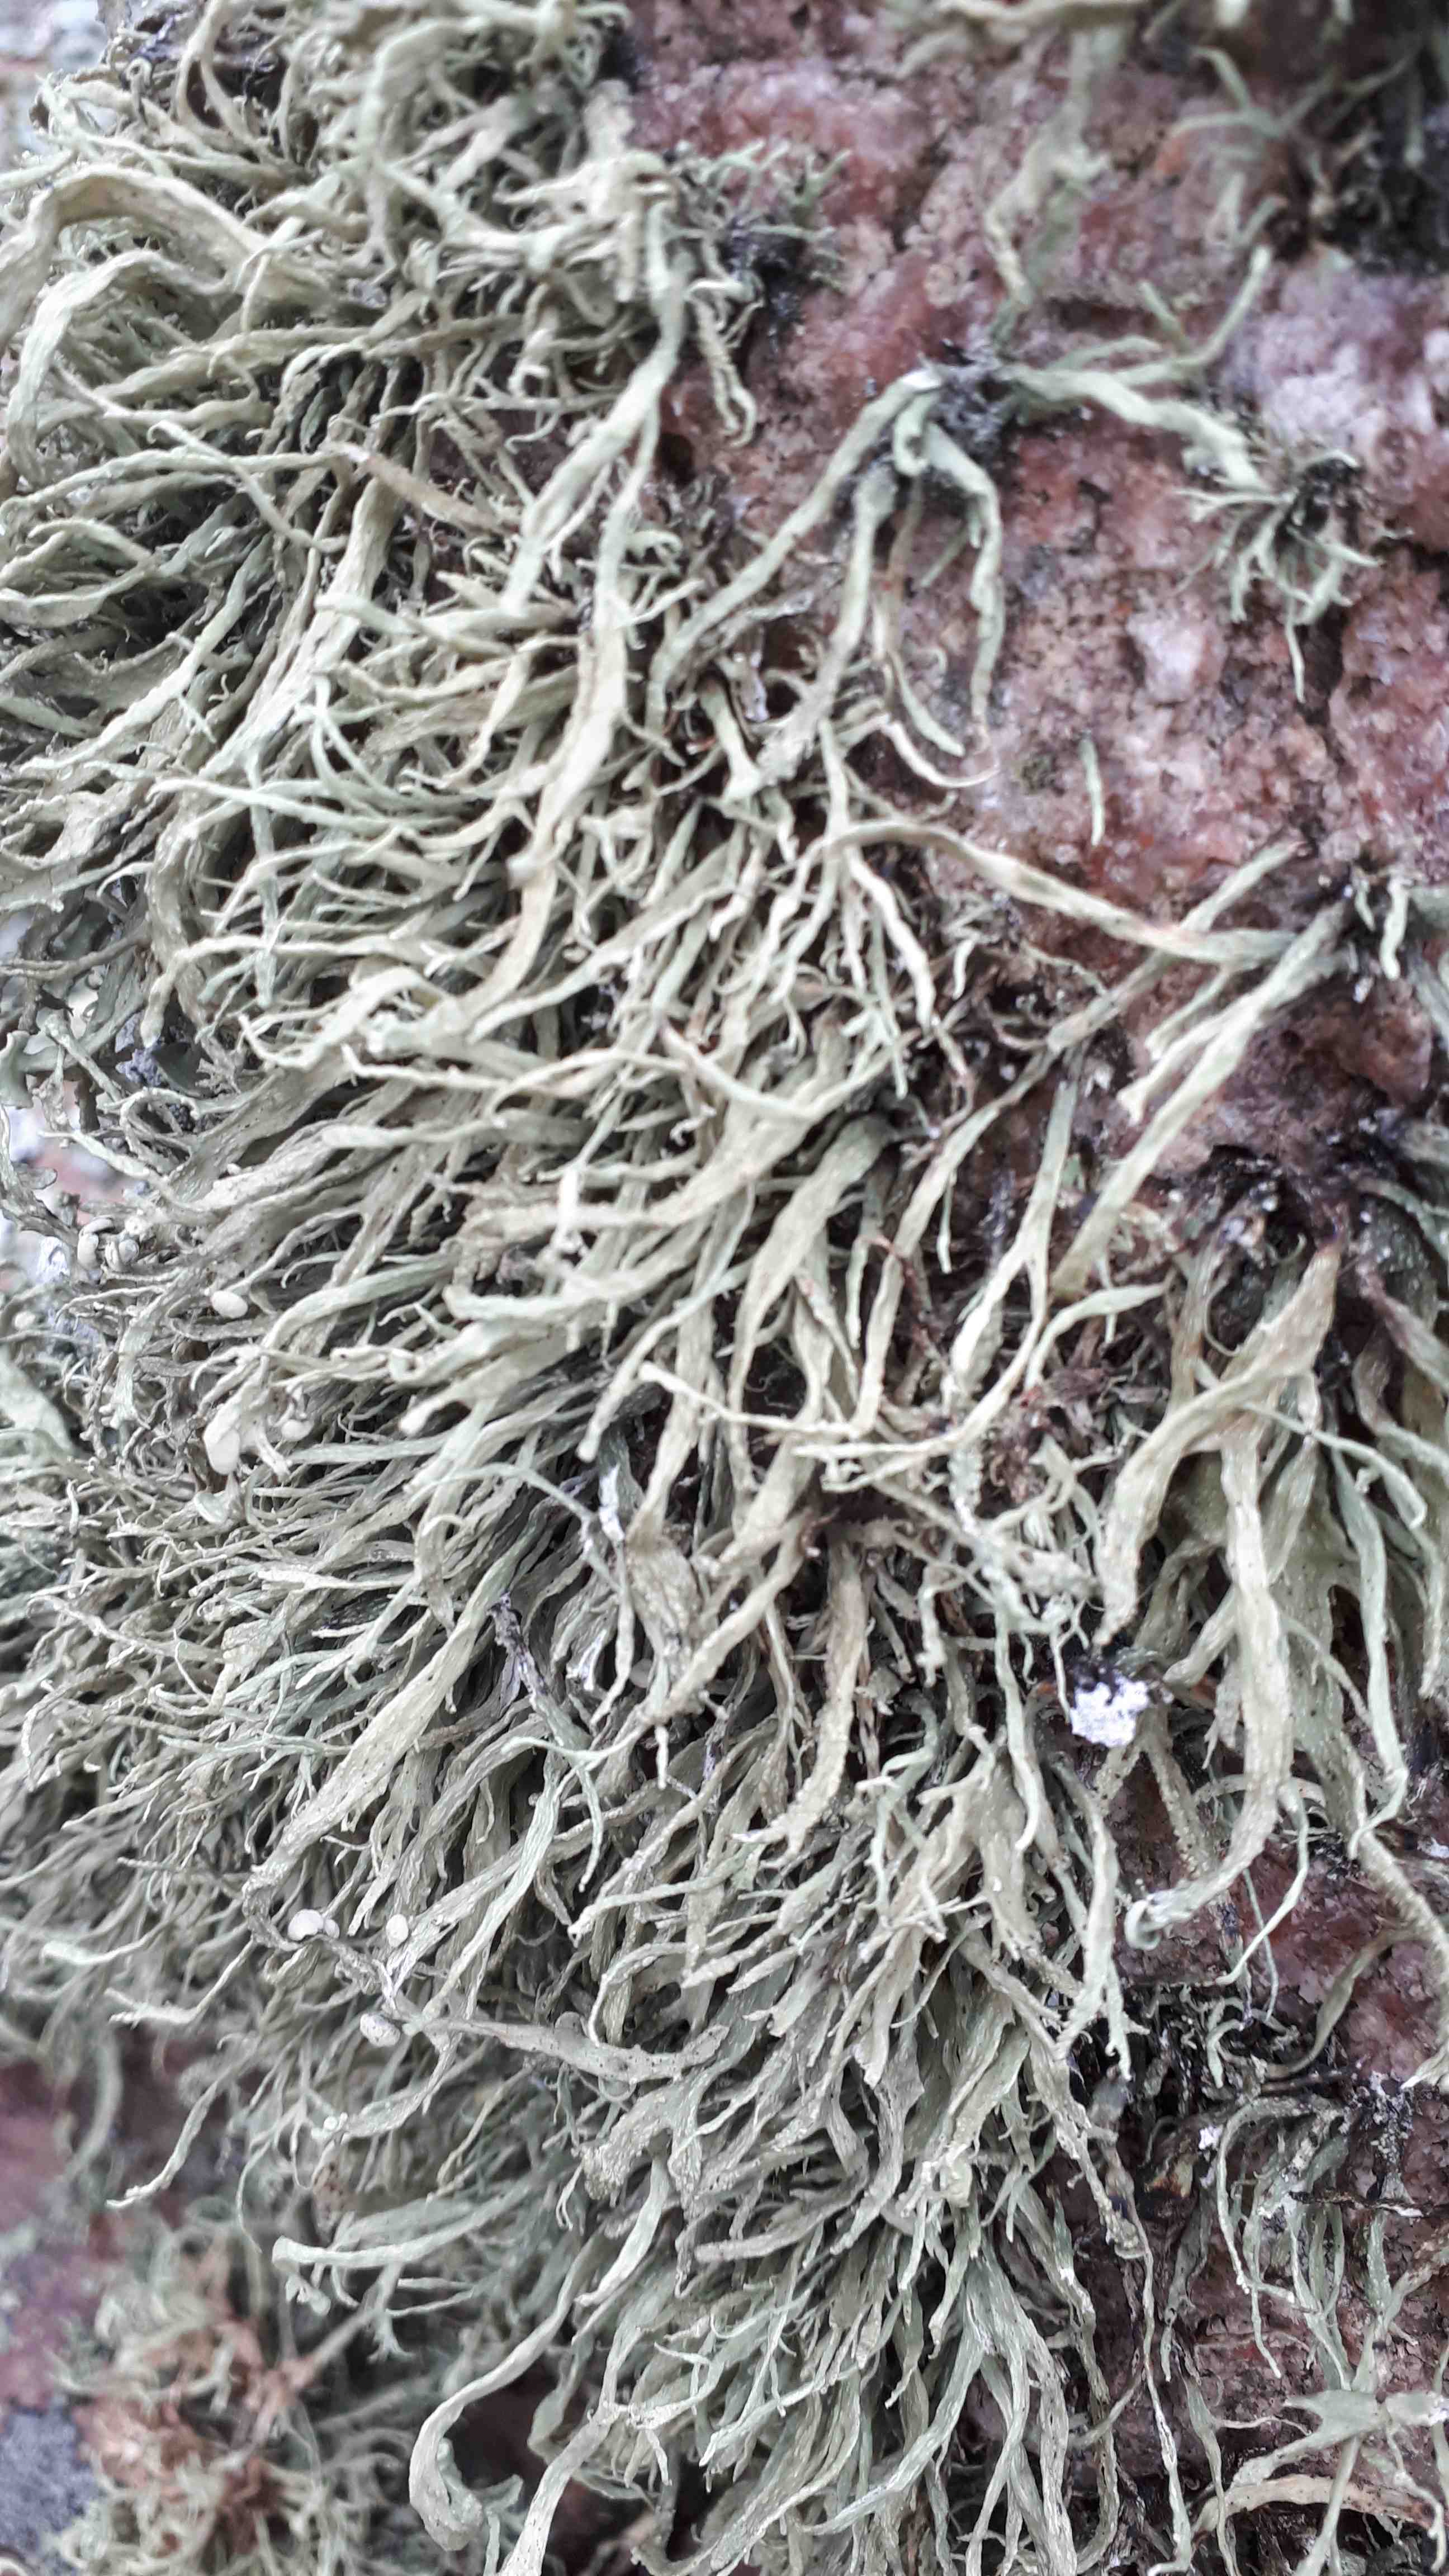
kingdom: Fungi
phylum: Ascomycota
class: Lecanoromycetes
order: Lecanorales
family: Ramalinaceae
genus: Ramalina
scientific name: Ramalina siliquosa
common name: klippe-grenlav
